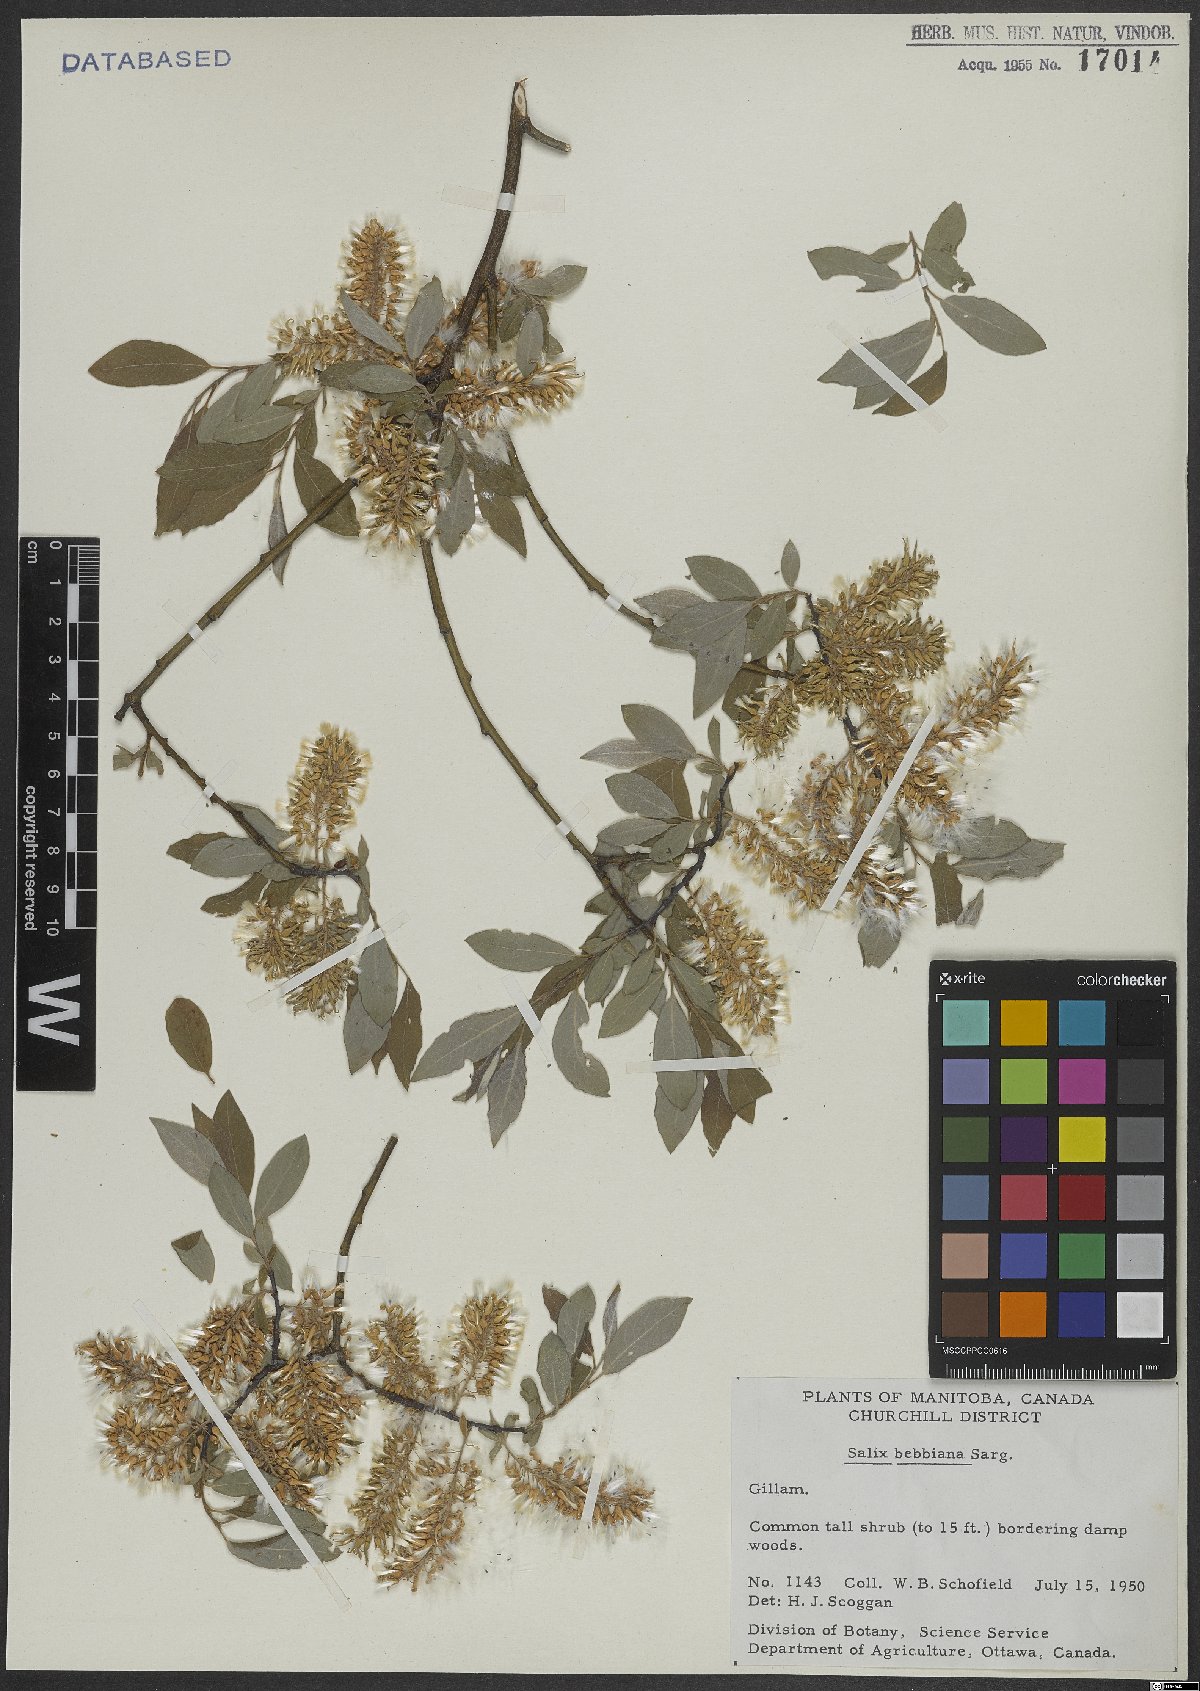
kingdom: Plantae
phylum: Tracheophyta
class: Magnoliopsida
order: Malpighiales
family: Salicaceae
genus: Salix
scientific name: Salix bebbiana
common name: Bebb's willow
